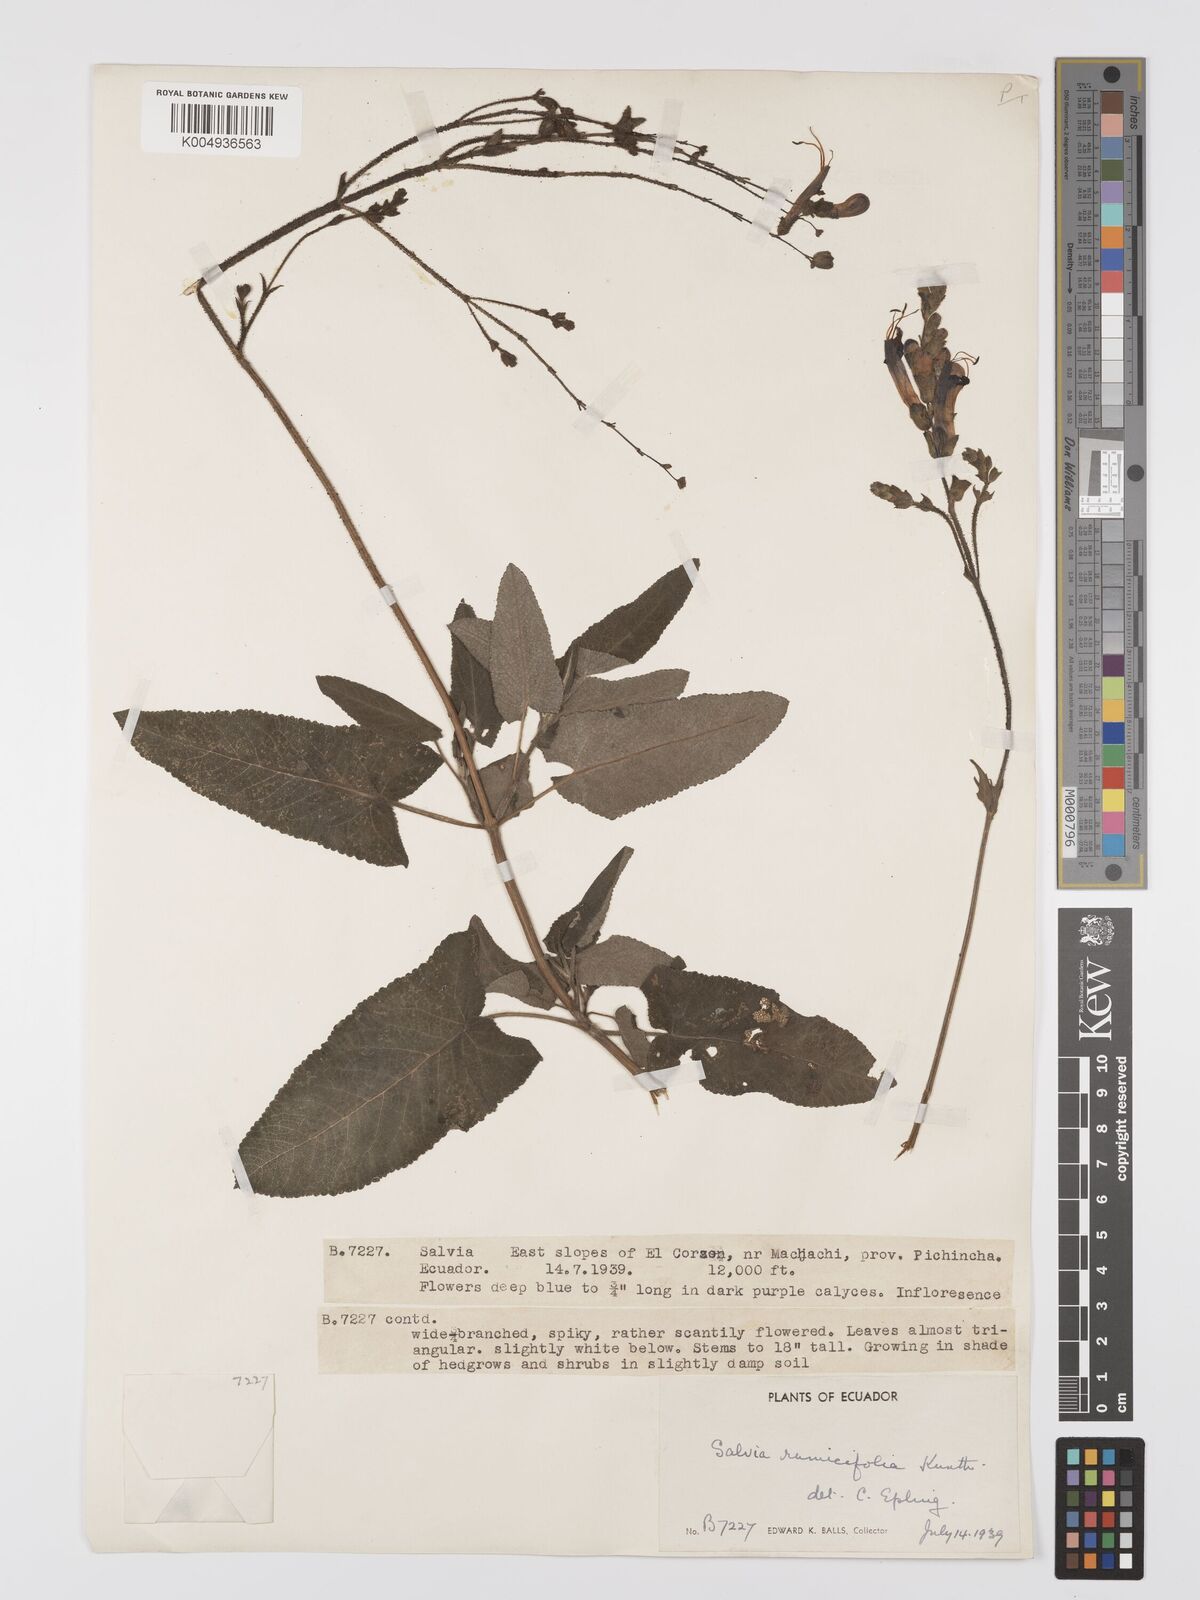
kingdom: Plantae
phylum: Tracheophyta
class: Magnoliopsida
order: Lamiales
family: Lamiaceae
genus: Salvia
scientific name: Salvia sagittata
